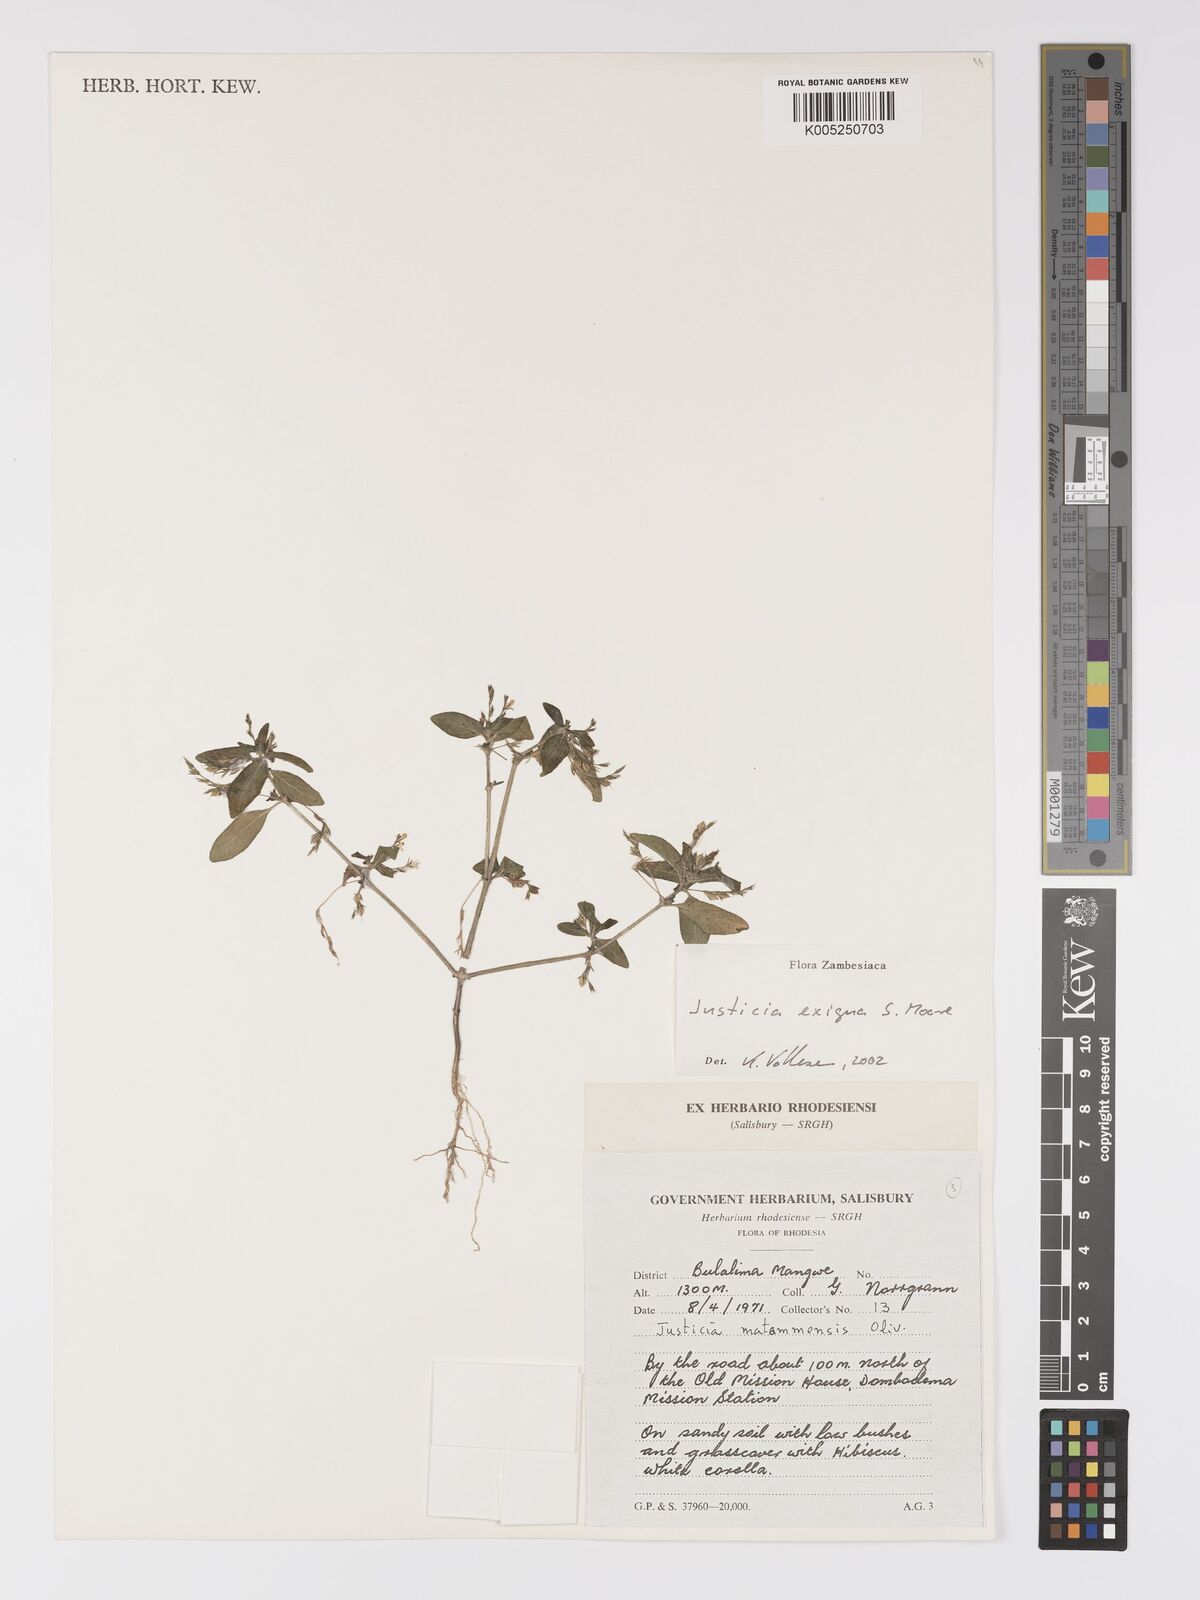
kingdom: Plantae
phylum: Tracheophyta
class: Magnoliopsida
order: Lamiales
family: Acanthaceae
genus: Justicia
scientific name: Justicia exigua
